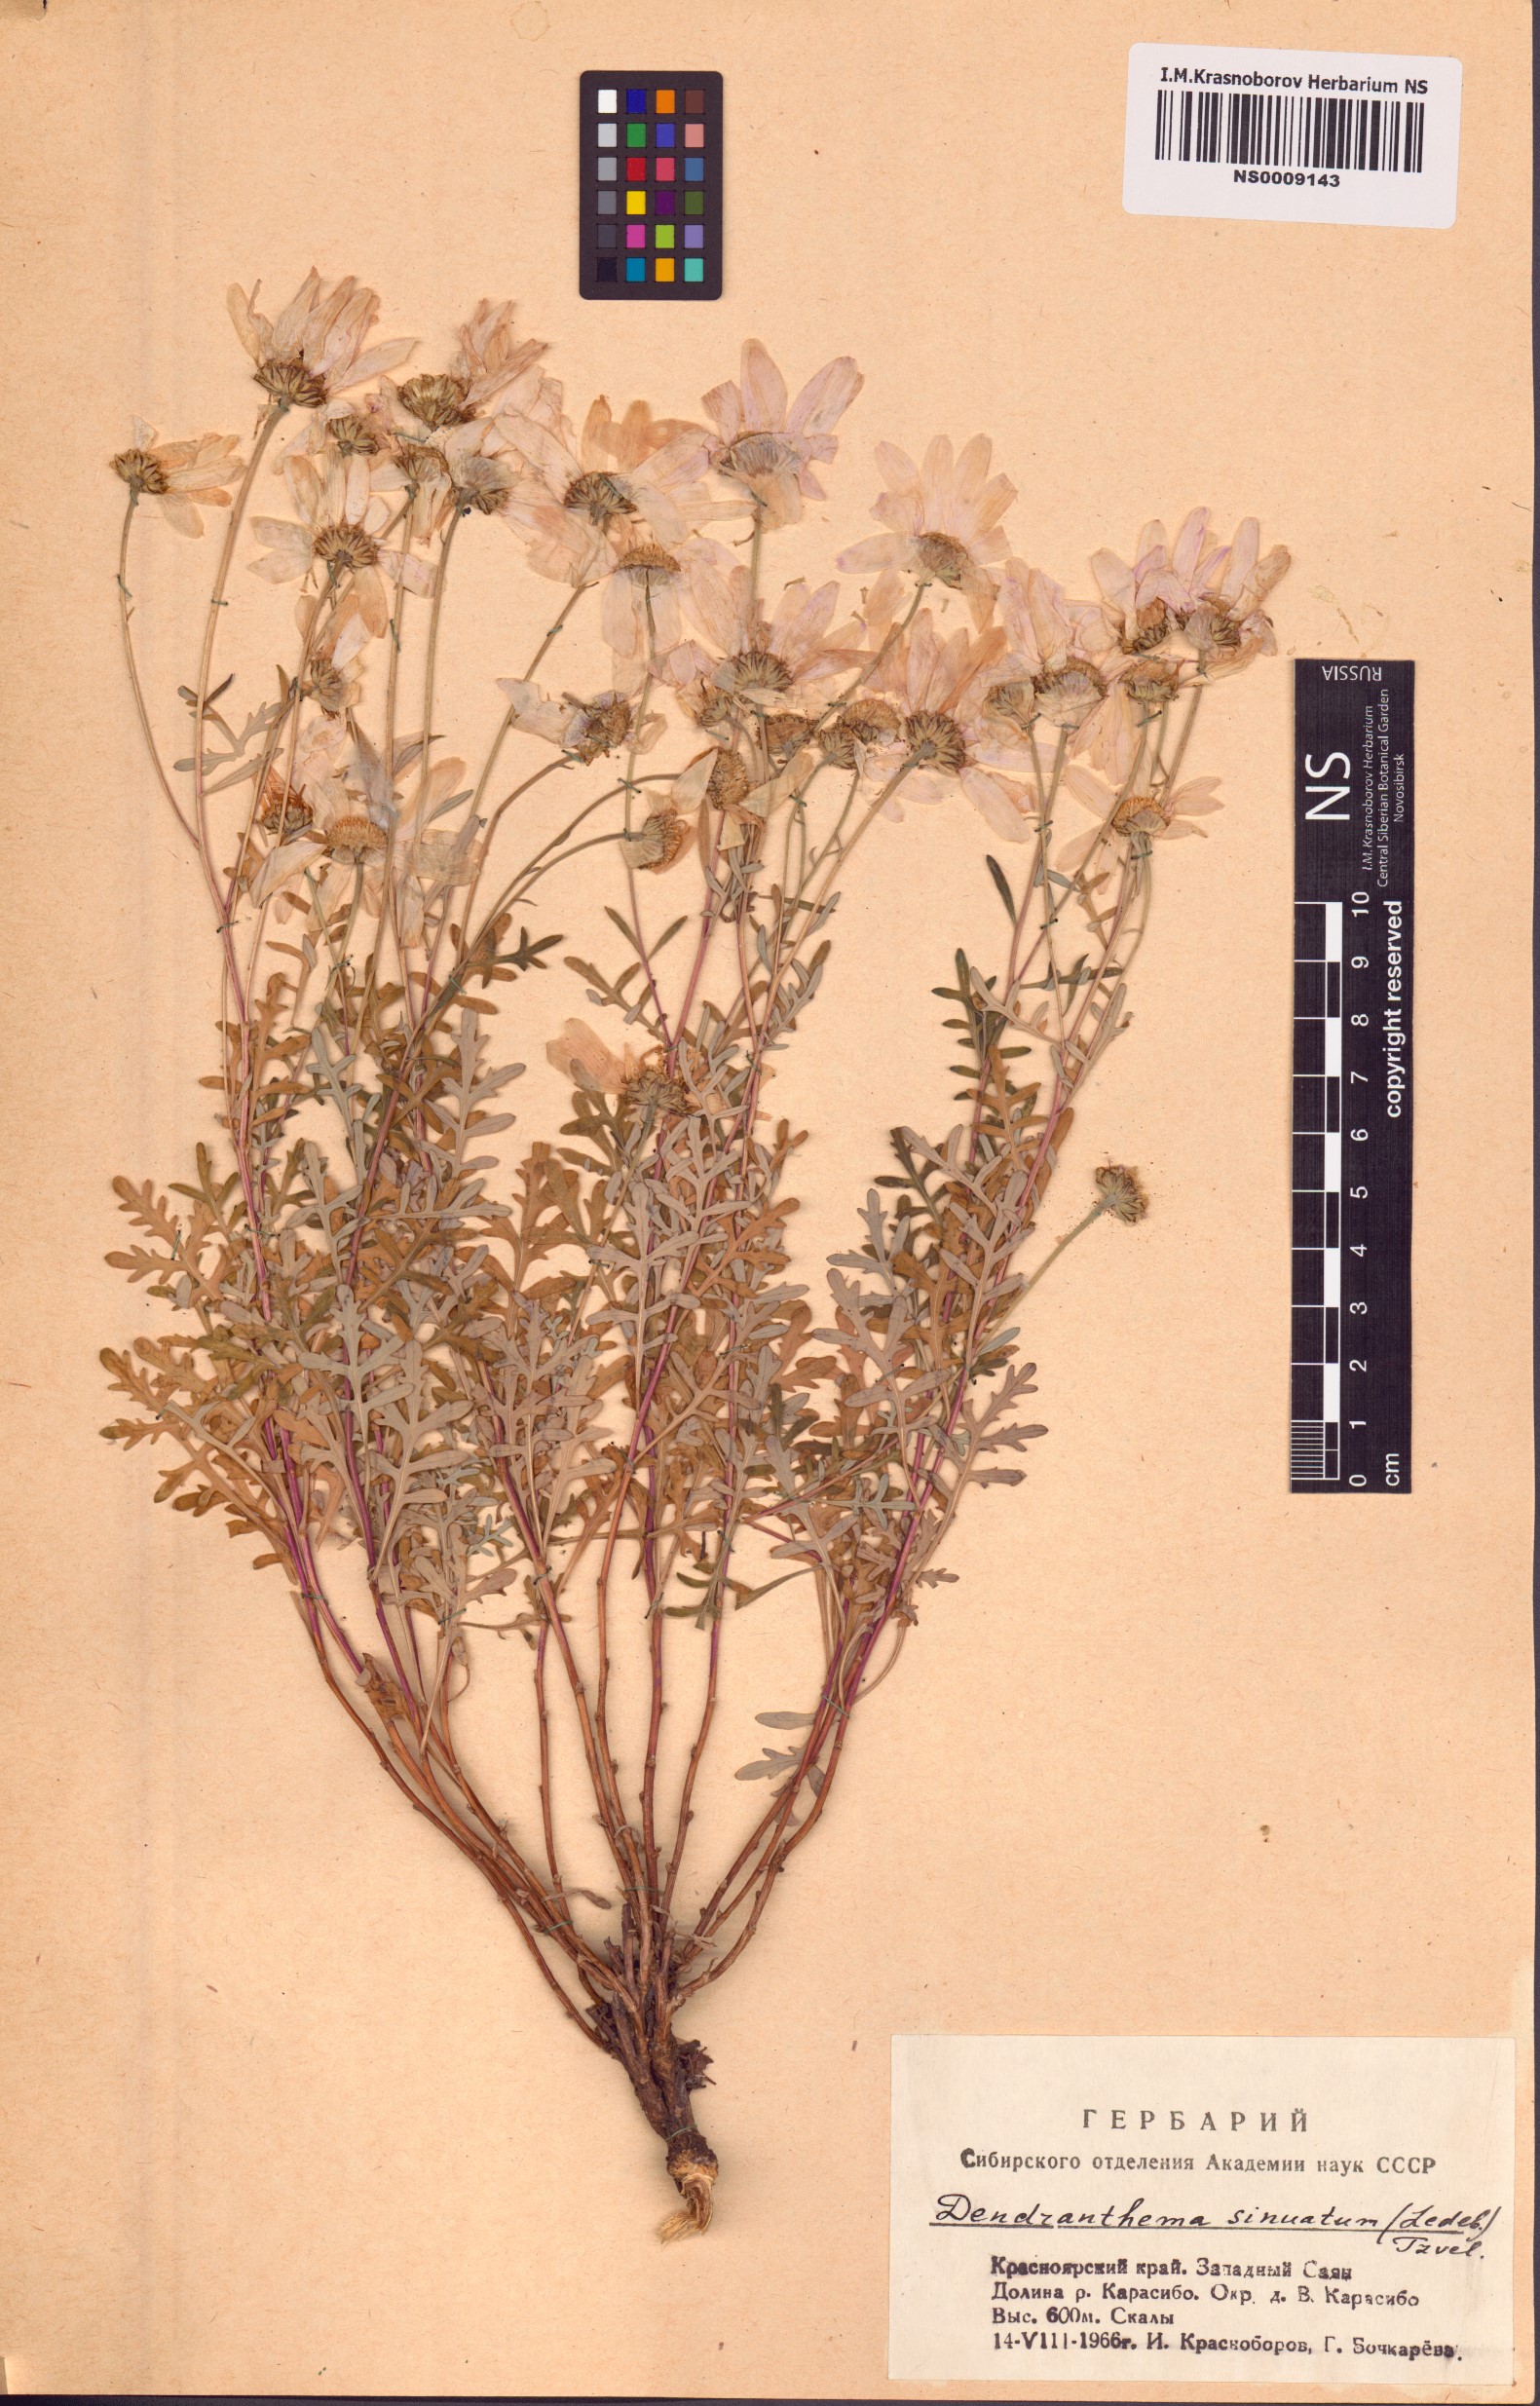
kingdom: Plantae
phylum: Tracheophyta
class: Magnoliopsida
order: Asterales
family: Asteraceae
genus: Chrysanthemum
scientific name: Chrysanthemum sinuatum
